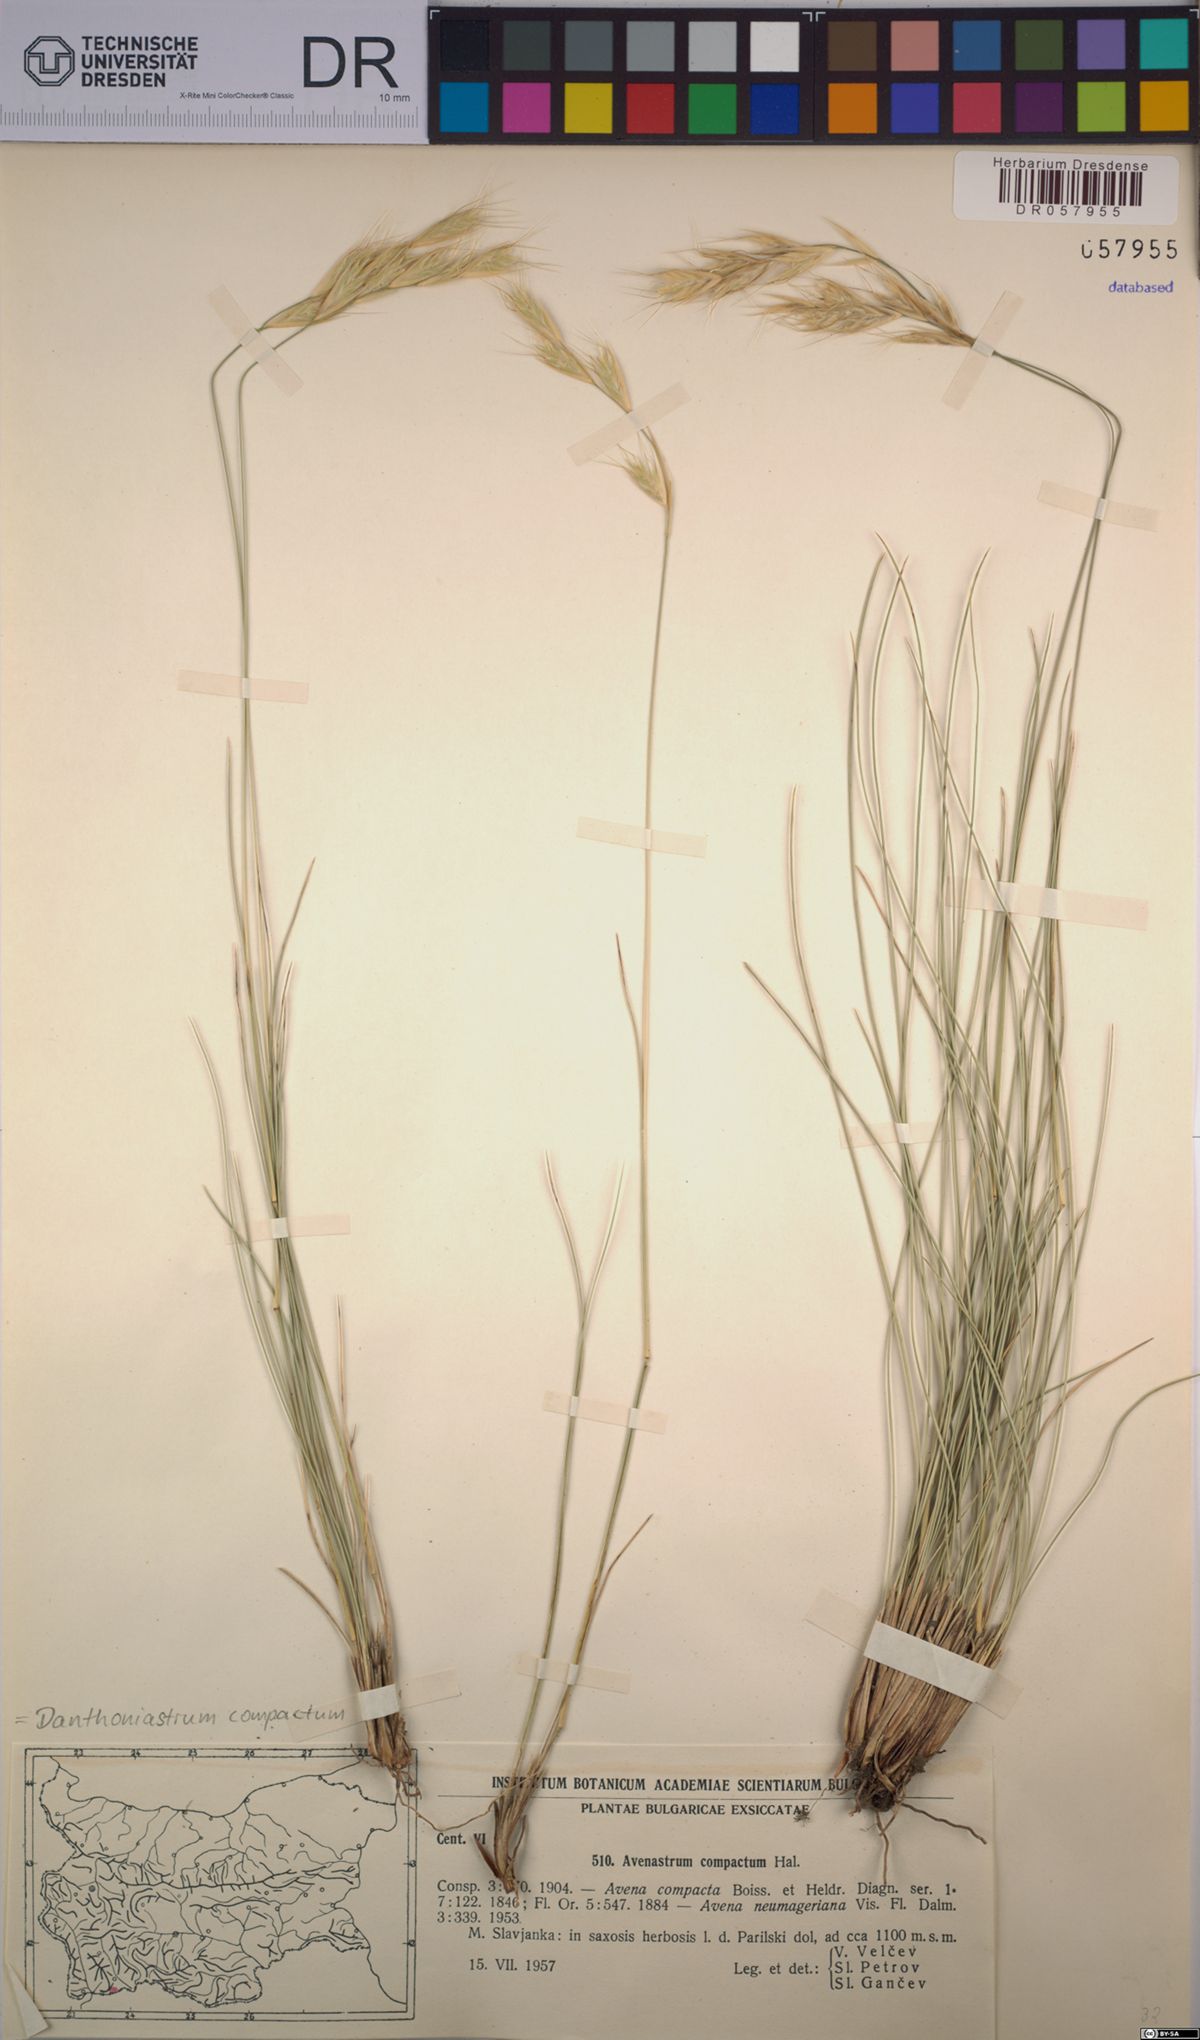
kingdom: Plantae
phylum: Tracheophyta
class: Liliopsida
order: Poales
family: Poaceae
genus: Danthoniastrum
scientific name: Danthoniastrum compactum
